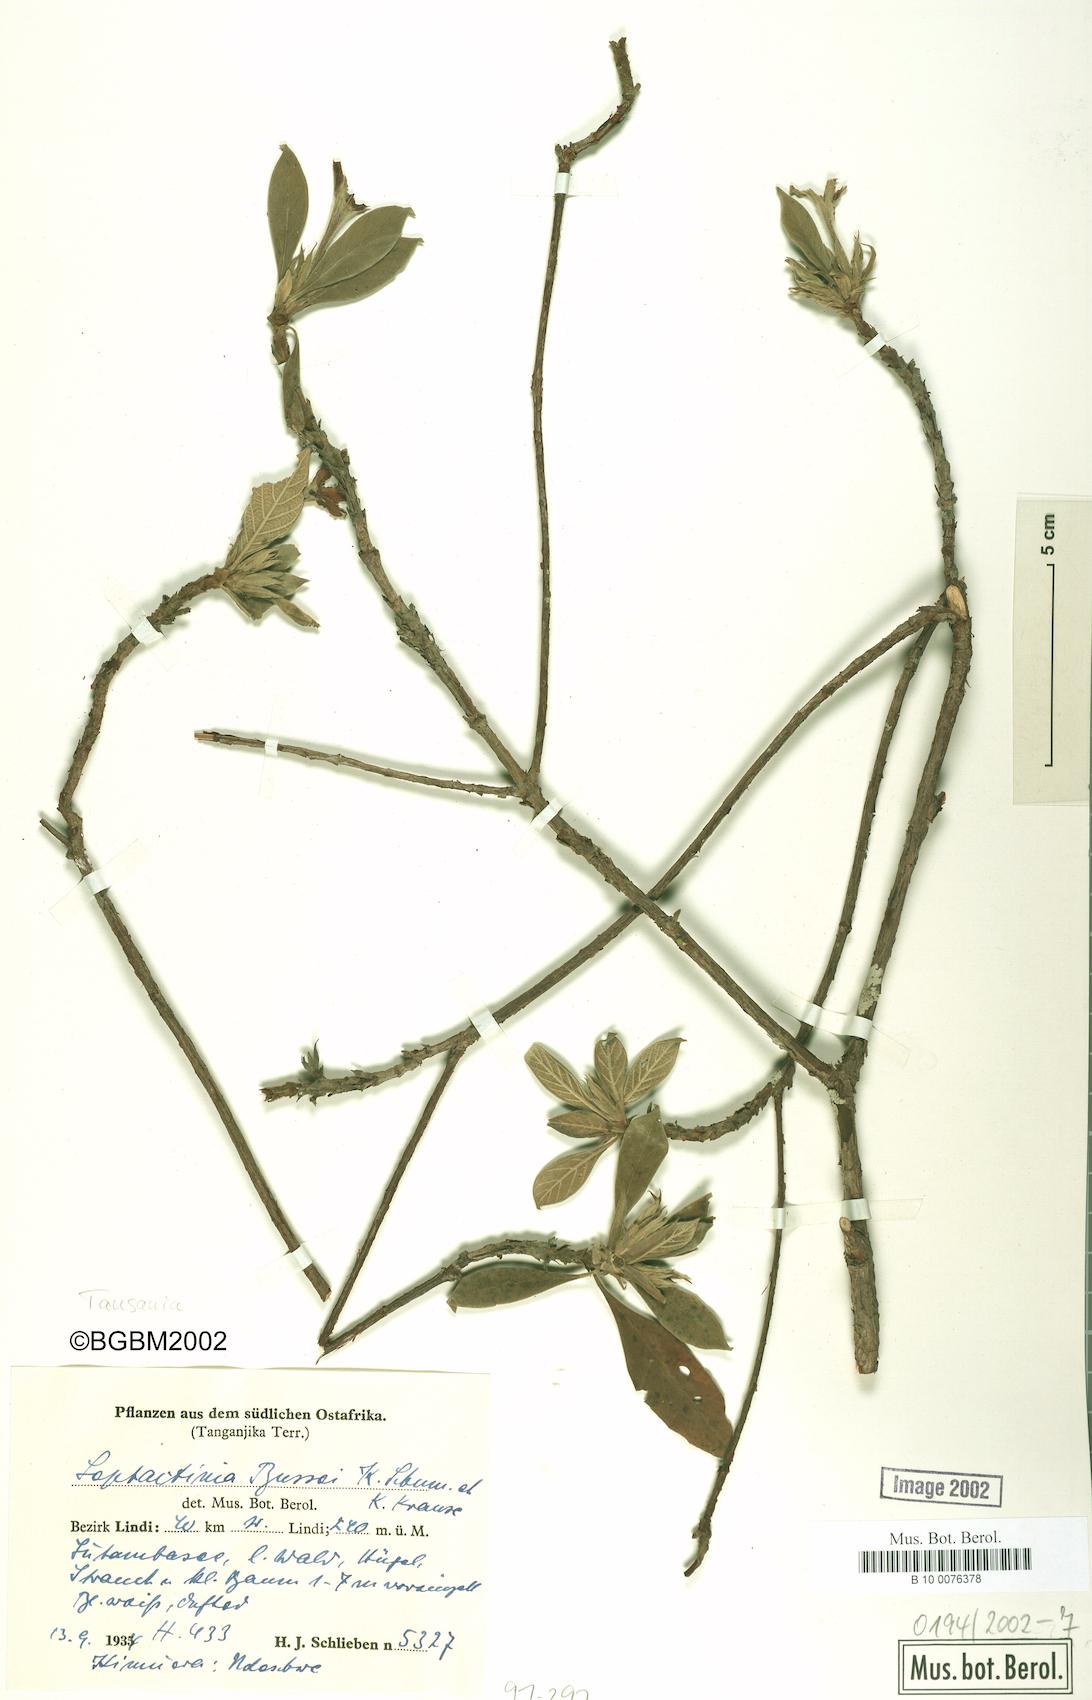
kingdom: Plantae
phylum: Tracheophyta
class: Magnoliopsida
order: Gentianales
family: Rubiaceae
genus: Leptactina
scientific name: Leptactina delagoensis
